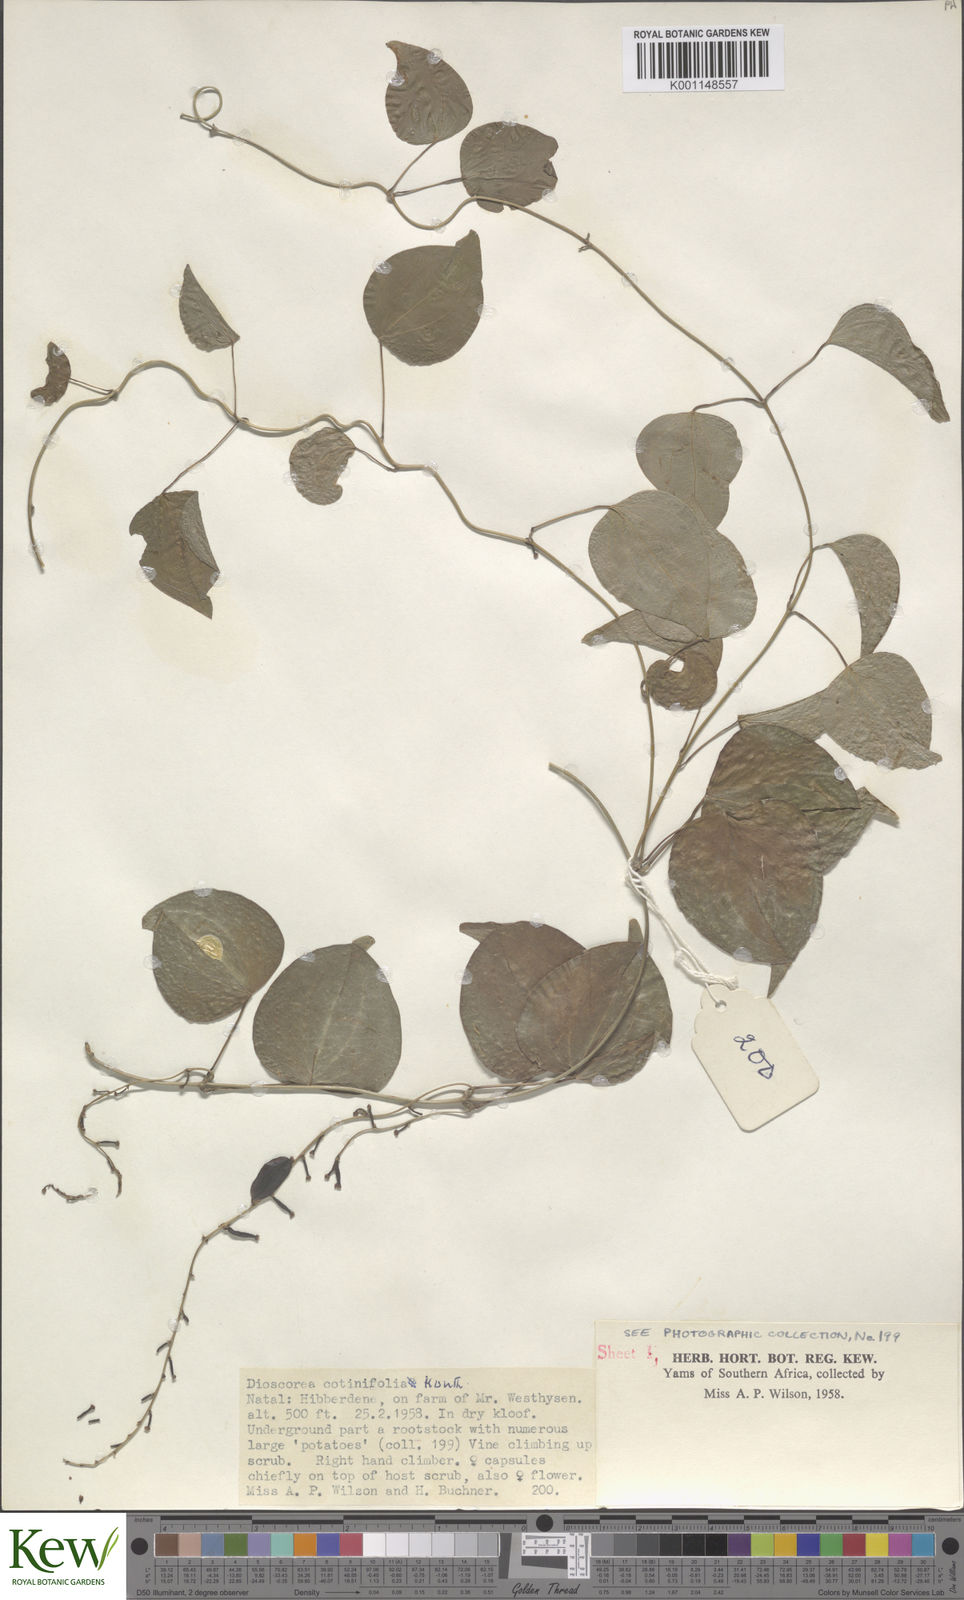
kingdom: Plantae
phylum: Tracheophyta
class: Liliopsida
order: Dioscoreales
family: Dioscoreaceae
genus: Dioscorea
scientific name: Dioscorea cotinifolia
